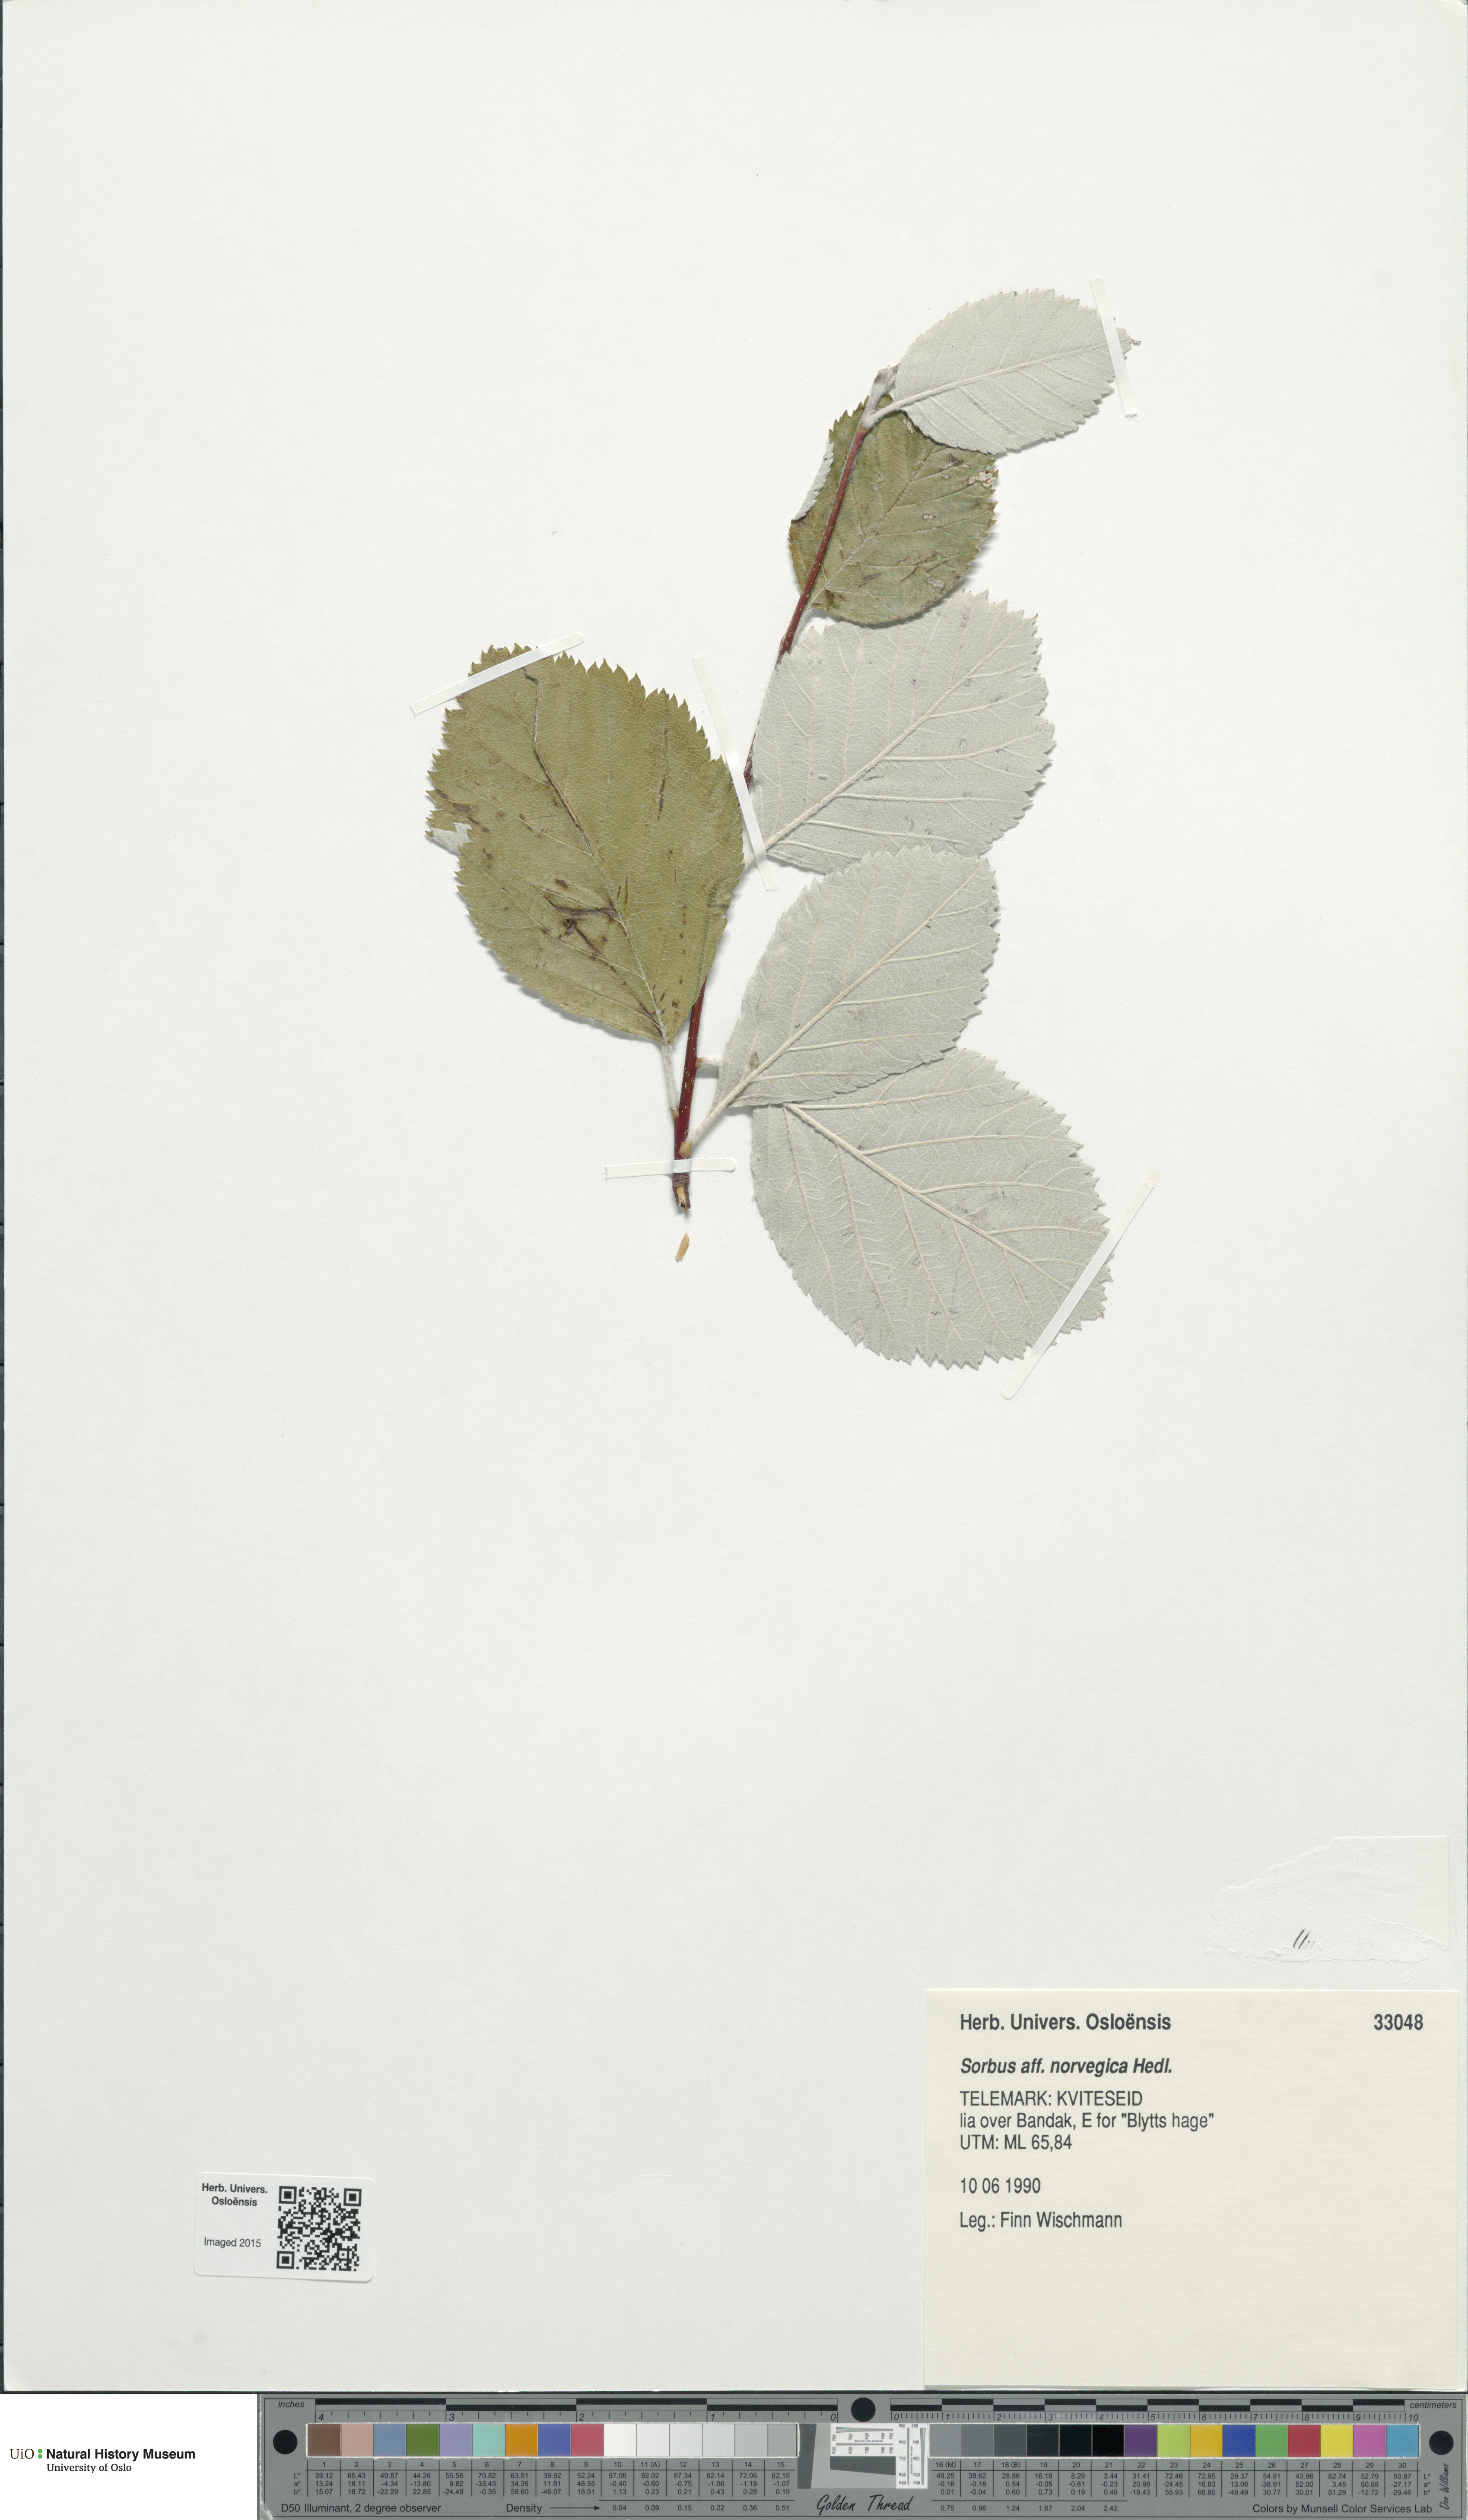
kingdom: Plantae
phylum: Tracheophyta
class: Magnoliopsida
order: Rosales
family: Rosaceae
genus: Aria
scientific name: Aria obtusifolia
